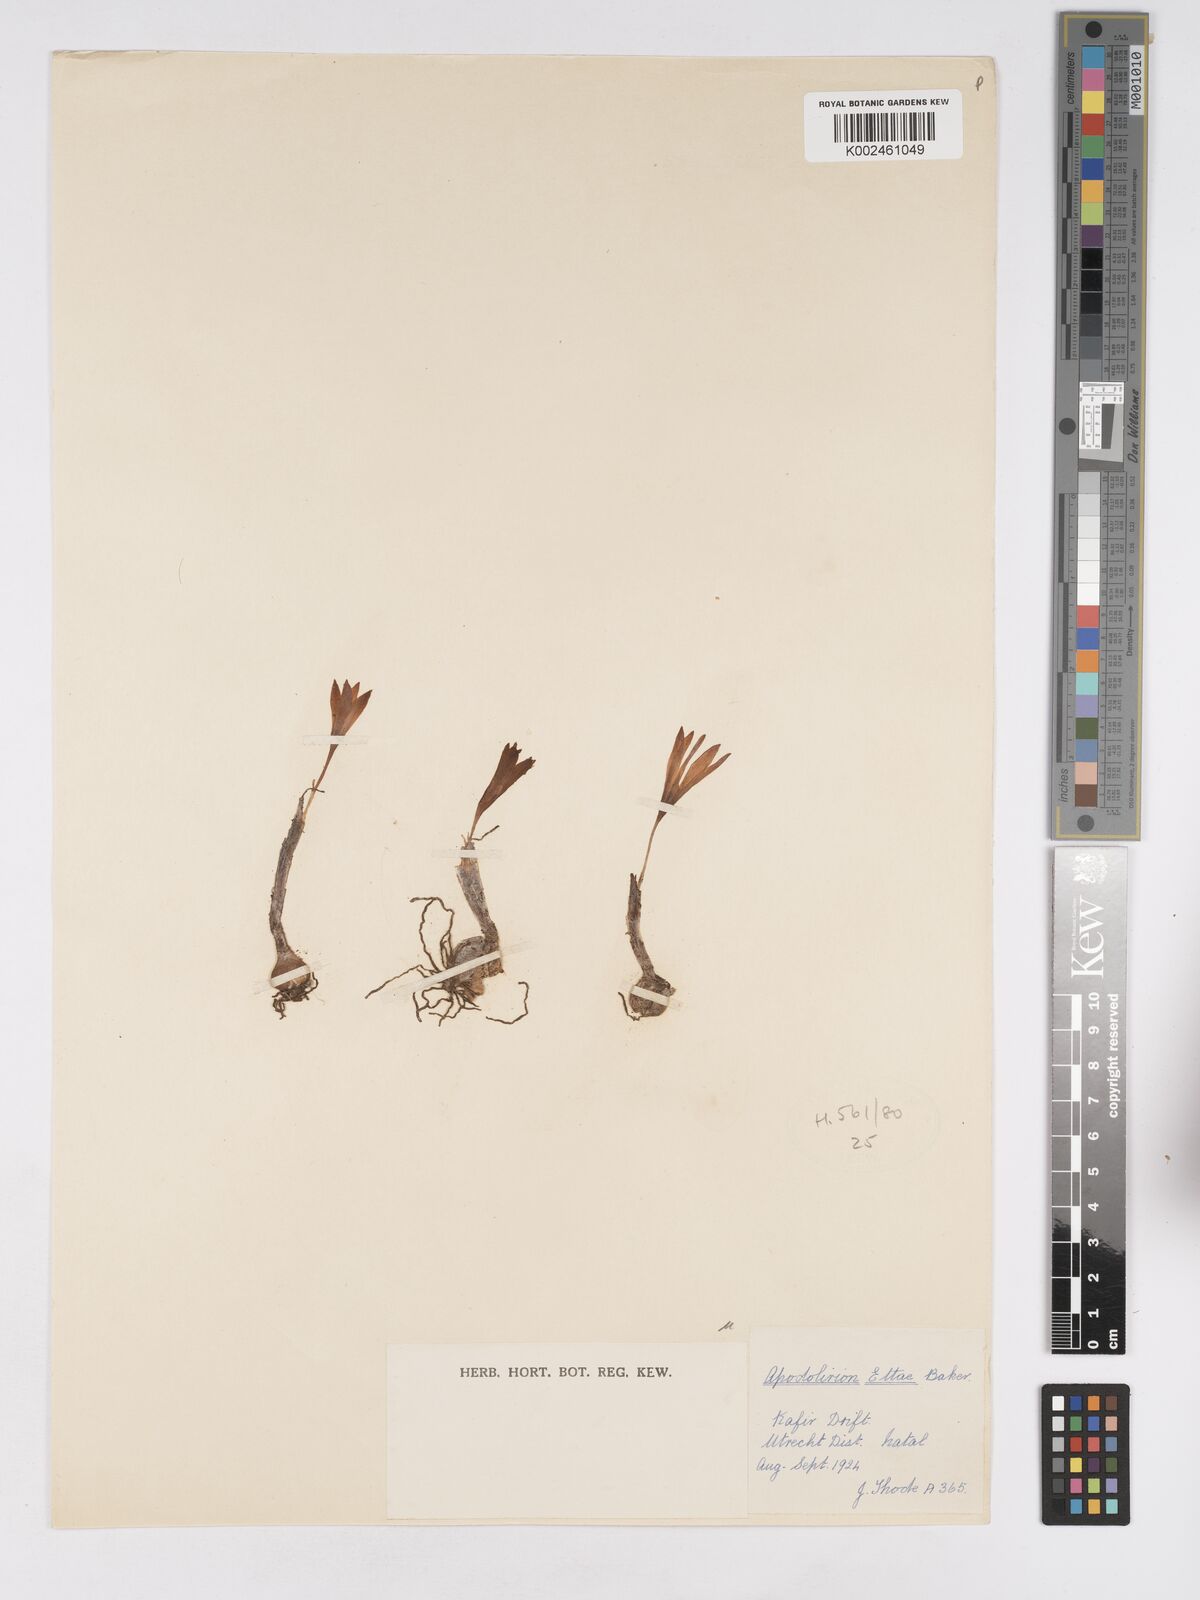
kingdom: Plantae
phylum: Tracheophyta
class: Liliopsida
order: Asparagales
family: Amaryllidaceae
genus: Apodolirion
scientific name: Apodolirion buchananii
